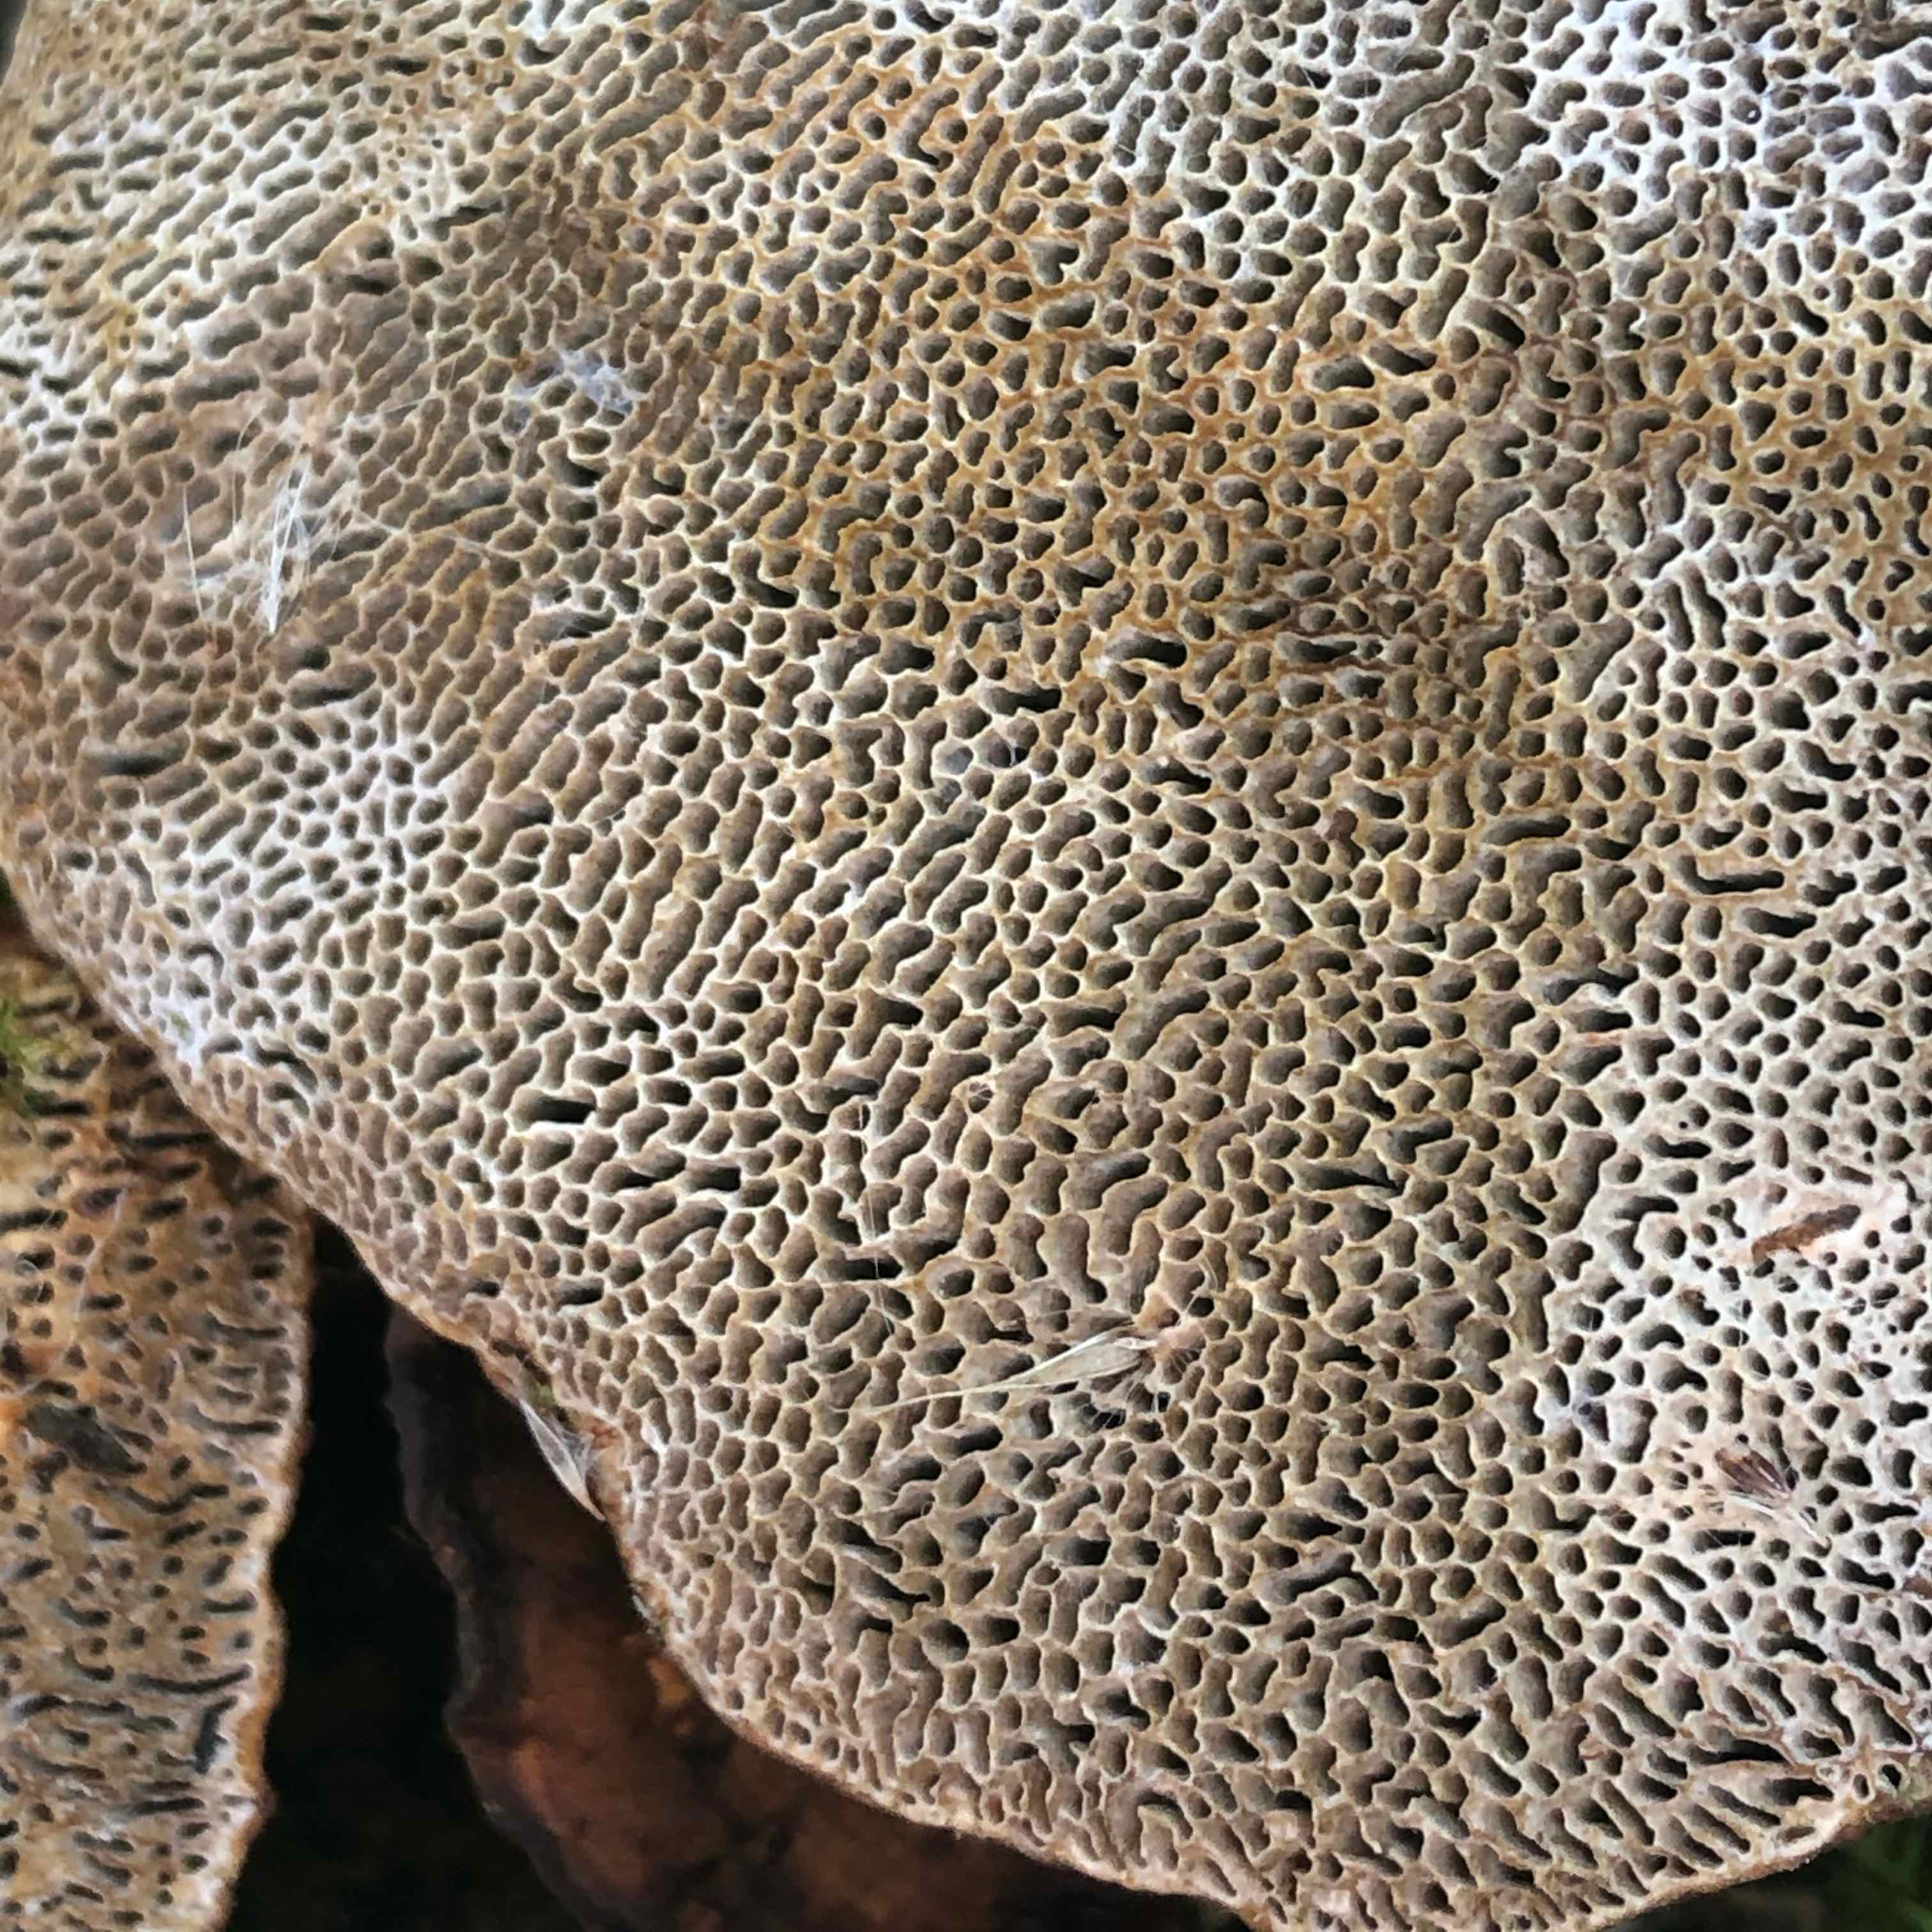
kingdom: Fungi
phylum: Basidiomycota
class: Agaricomycetes
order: Polyporales
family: Polyporaceae
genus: Daedaleopsis
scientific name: Daedaleopsis confragosa
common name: rødmende læderporesvamp
